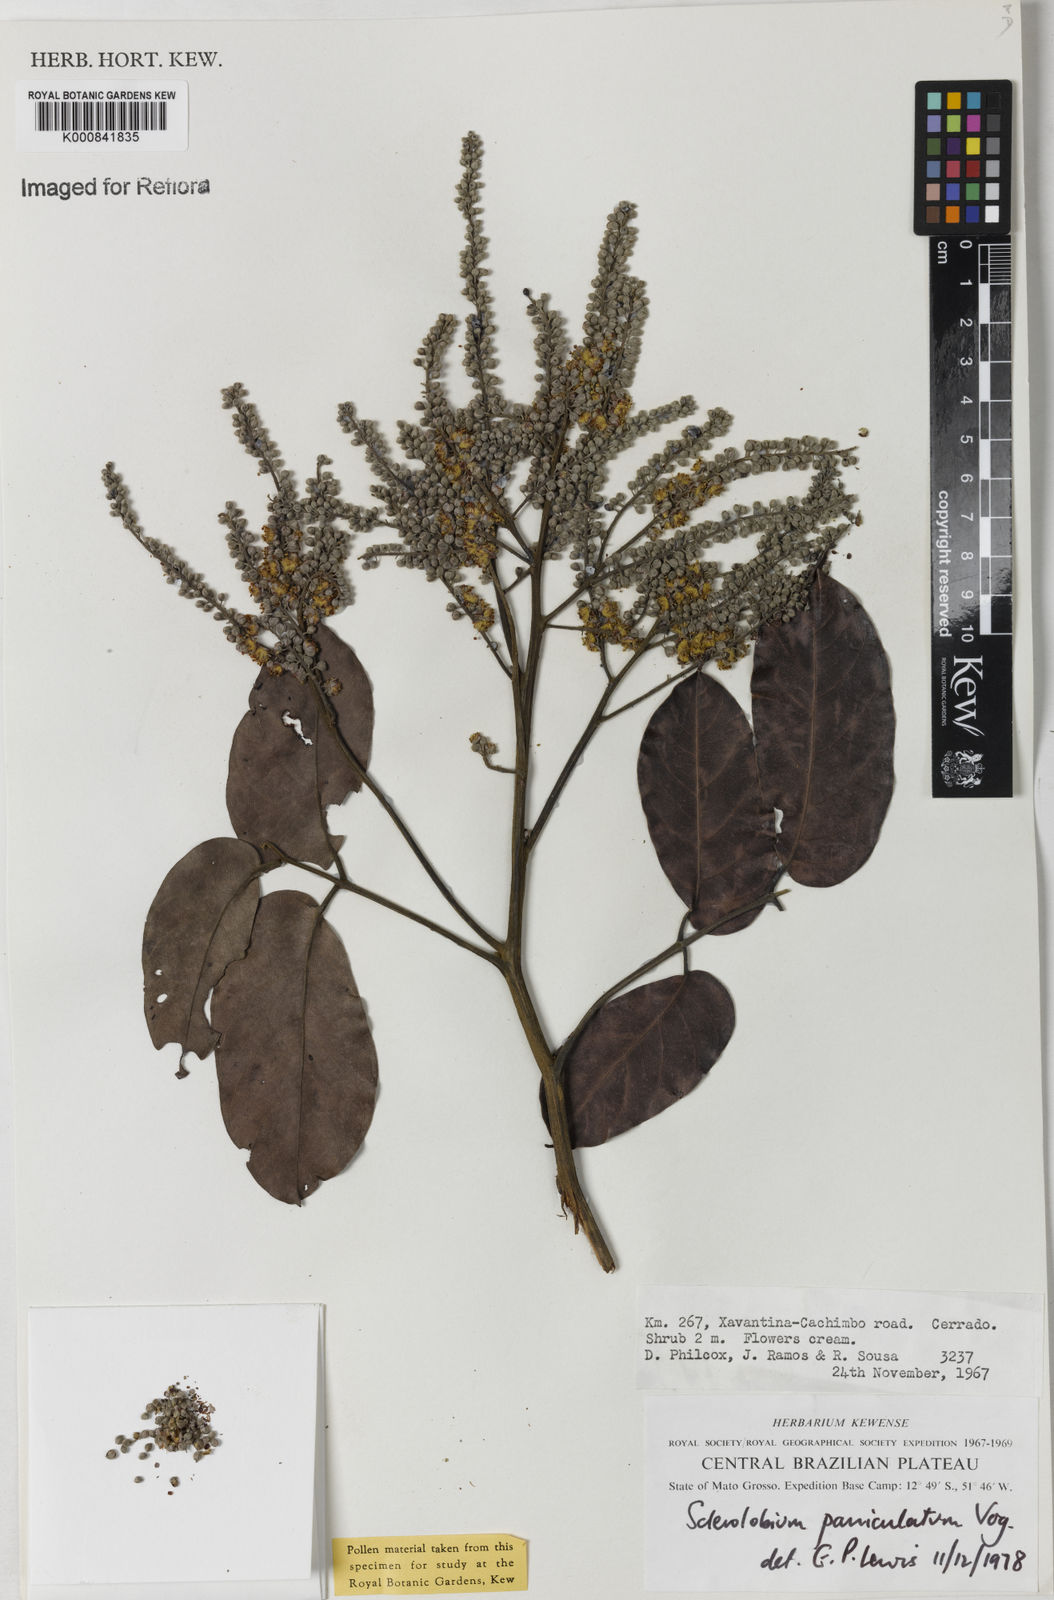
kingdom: Plantae
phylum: Tracheophyta
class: Magnoliopsida
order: Fabales
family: Fabaceae
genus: Tachigali
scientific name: Tachigali vulgaris
